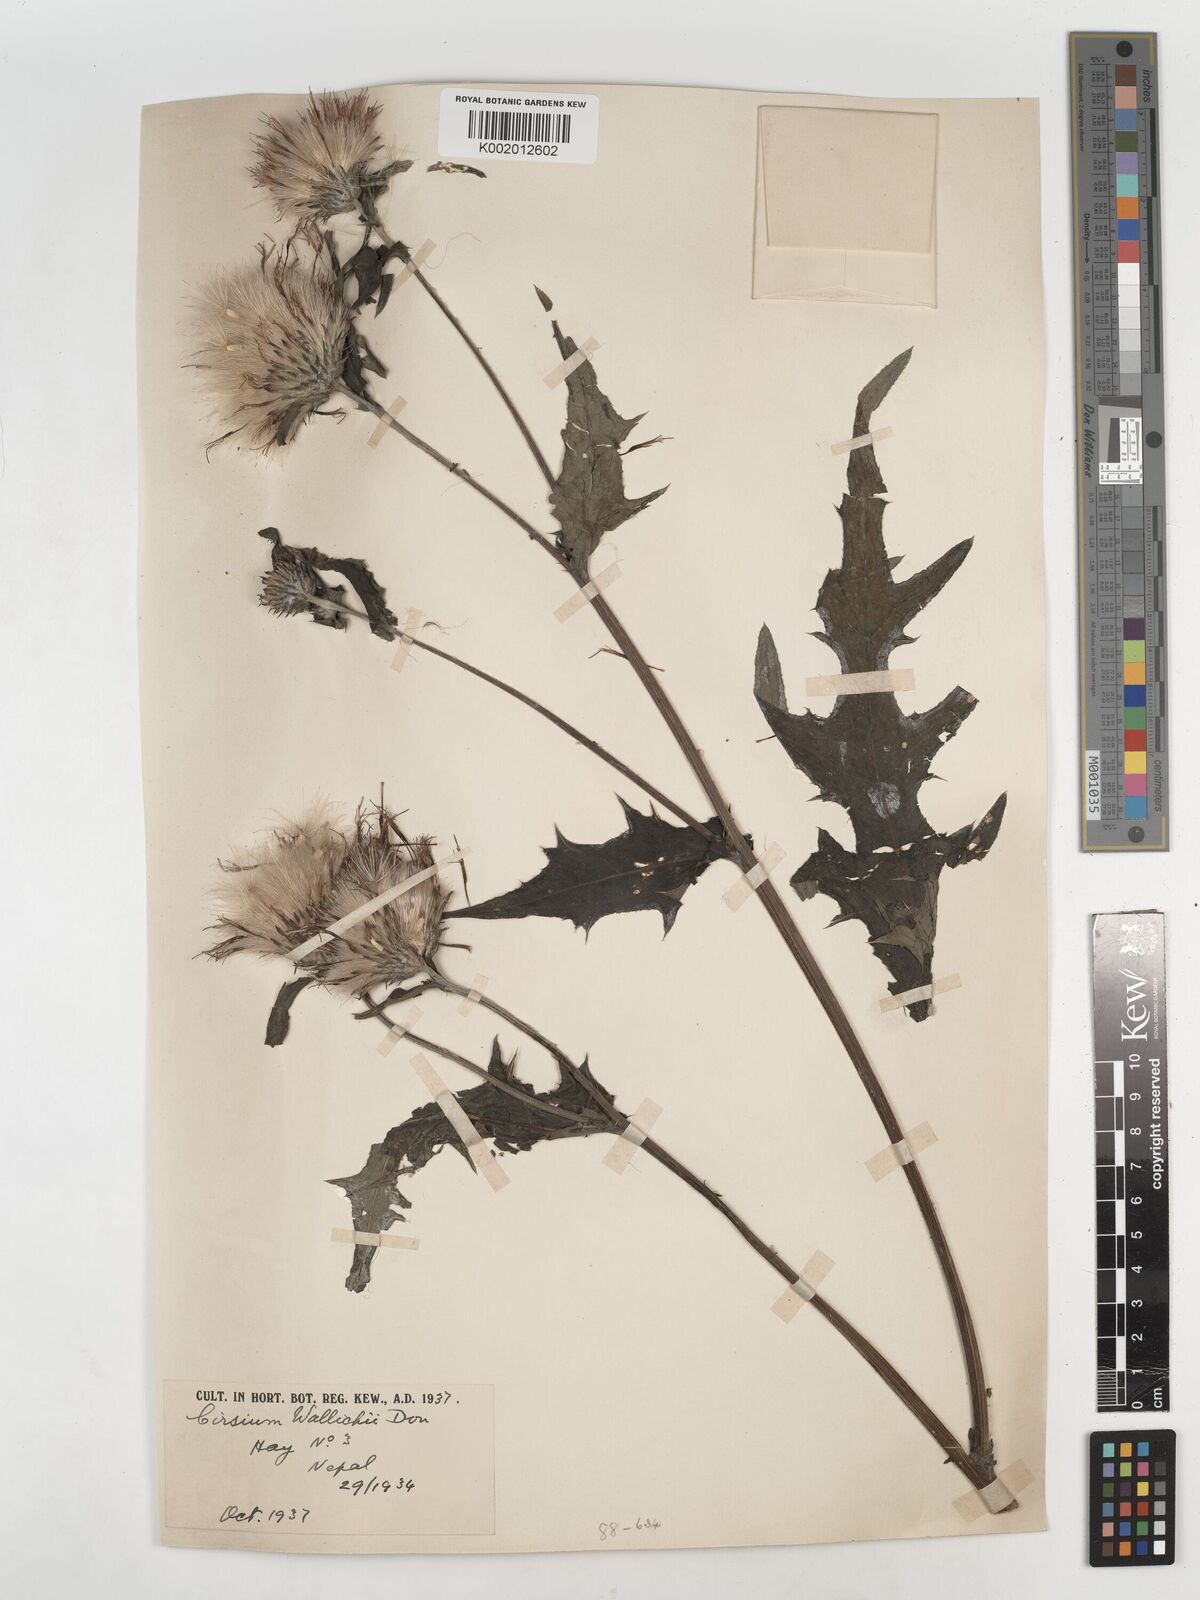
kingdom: Plantae
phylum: Tracheophyta
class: Magnoliopsida
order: Asterales
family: Asteraceae
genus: Cirsium
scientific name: Cirsium wallichii
